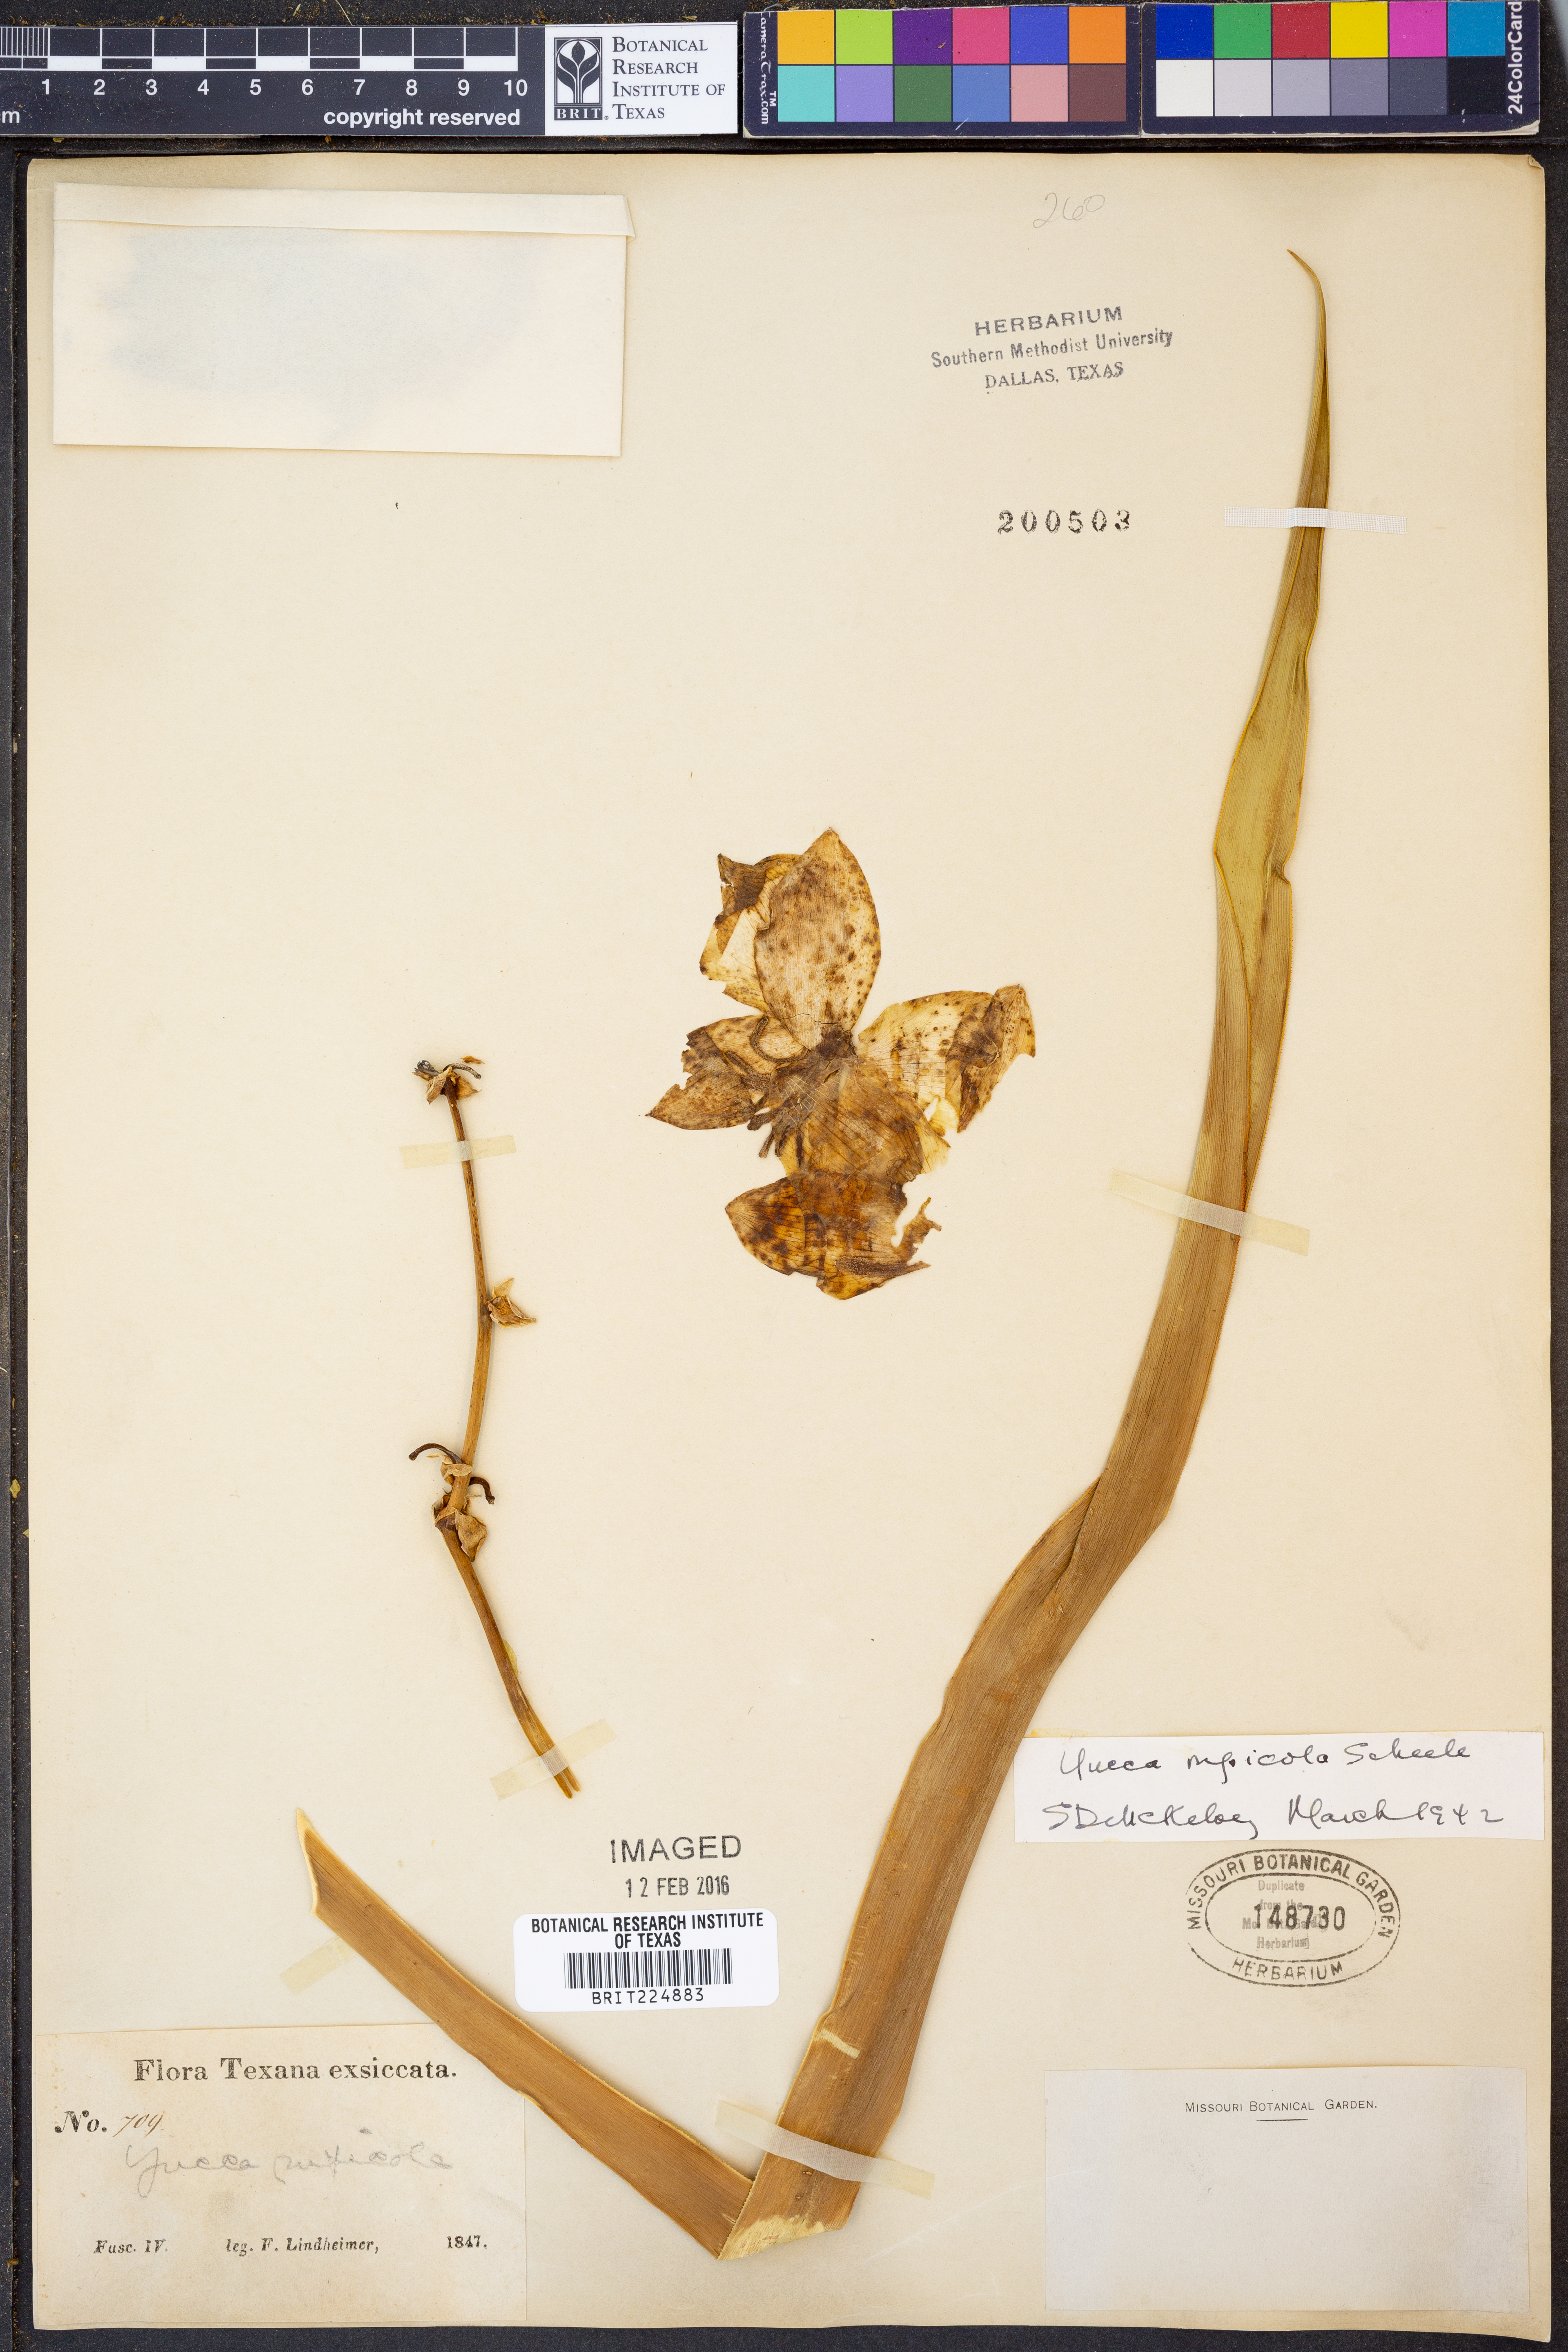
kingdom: Plantae
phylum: Tracheophyta
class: Liliopsida
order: Asparagales
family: Asparagaceae
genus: Yucca
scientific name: Yucca rupicola
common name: Twisted-leaf spanish-dagger
